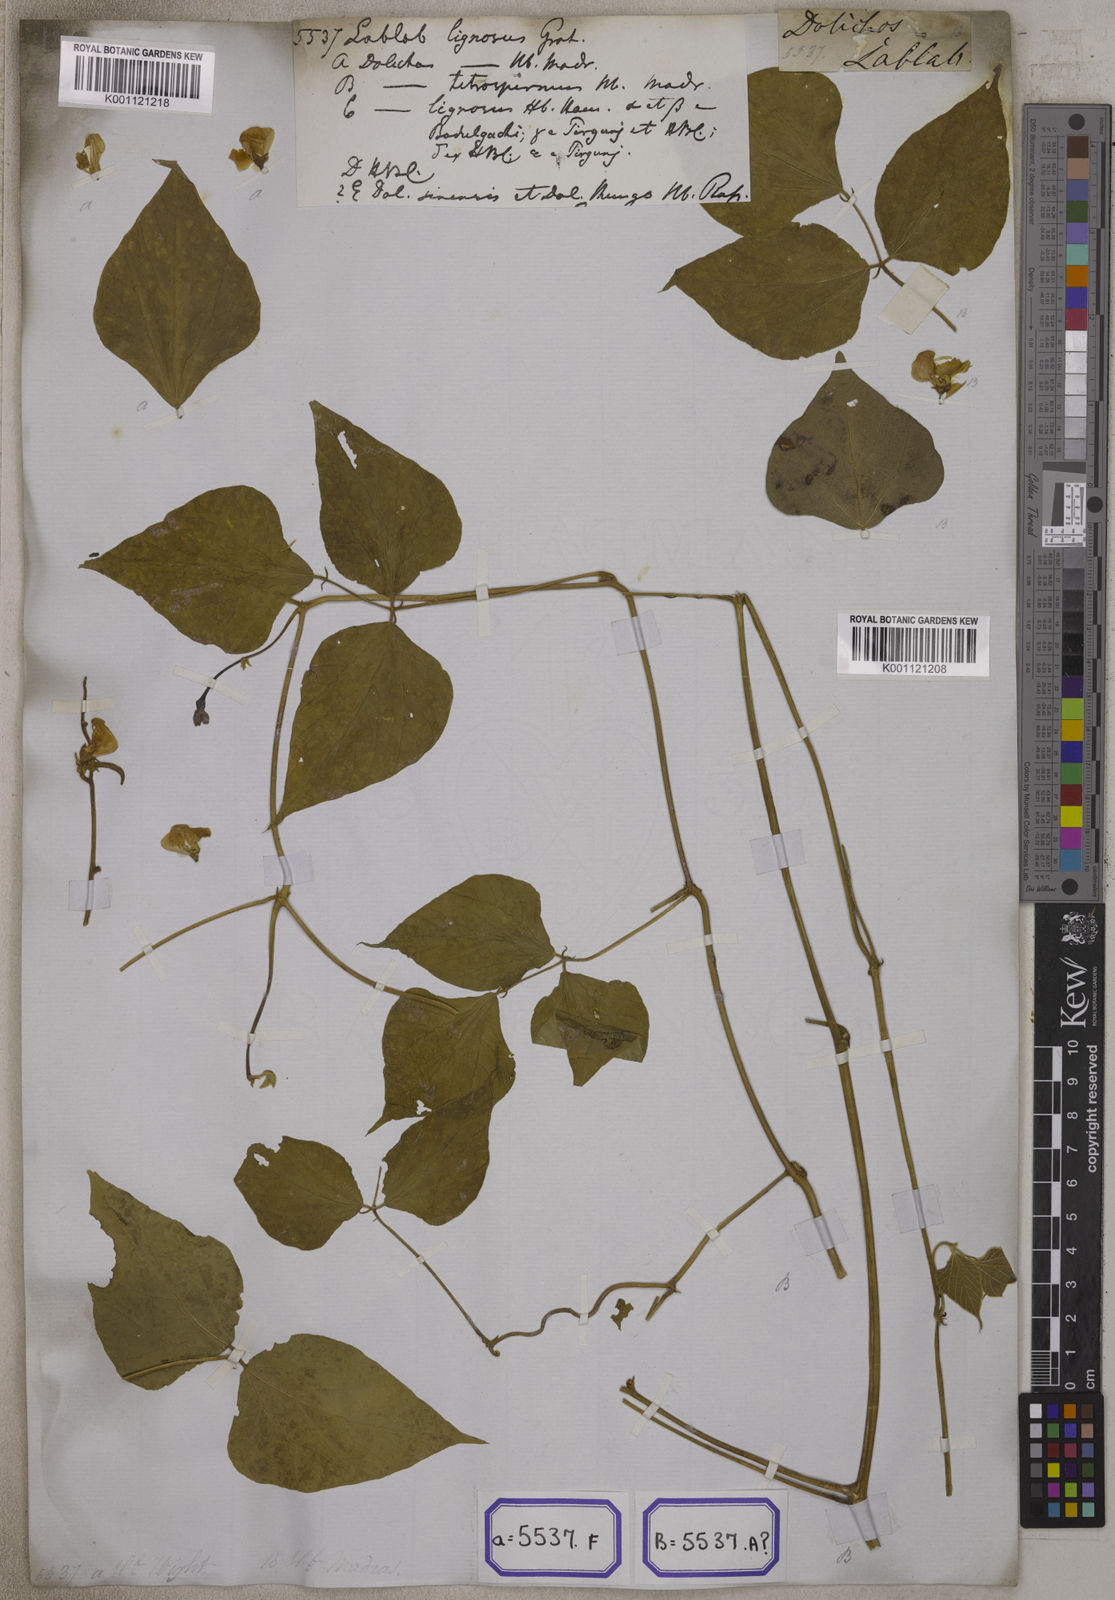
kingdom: Plantae
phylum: Tracheophyta
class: Magnoliopsida
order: Fabales
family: Fabaceae
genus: Lablab
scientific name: Lablab purpureus
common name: Lablab-bean
